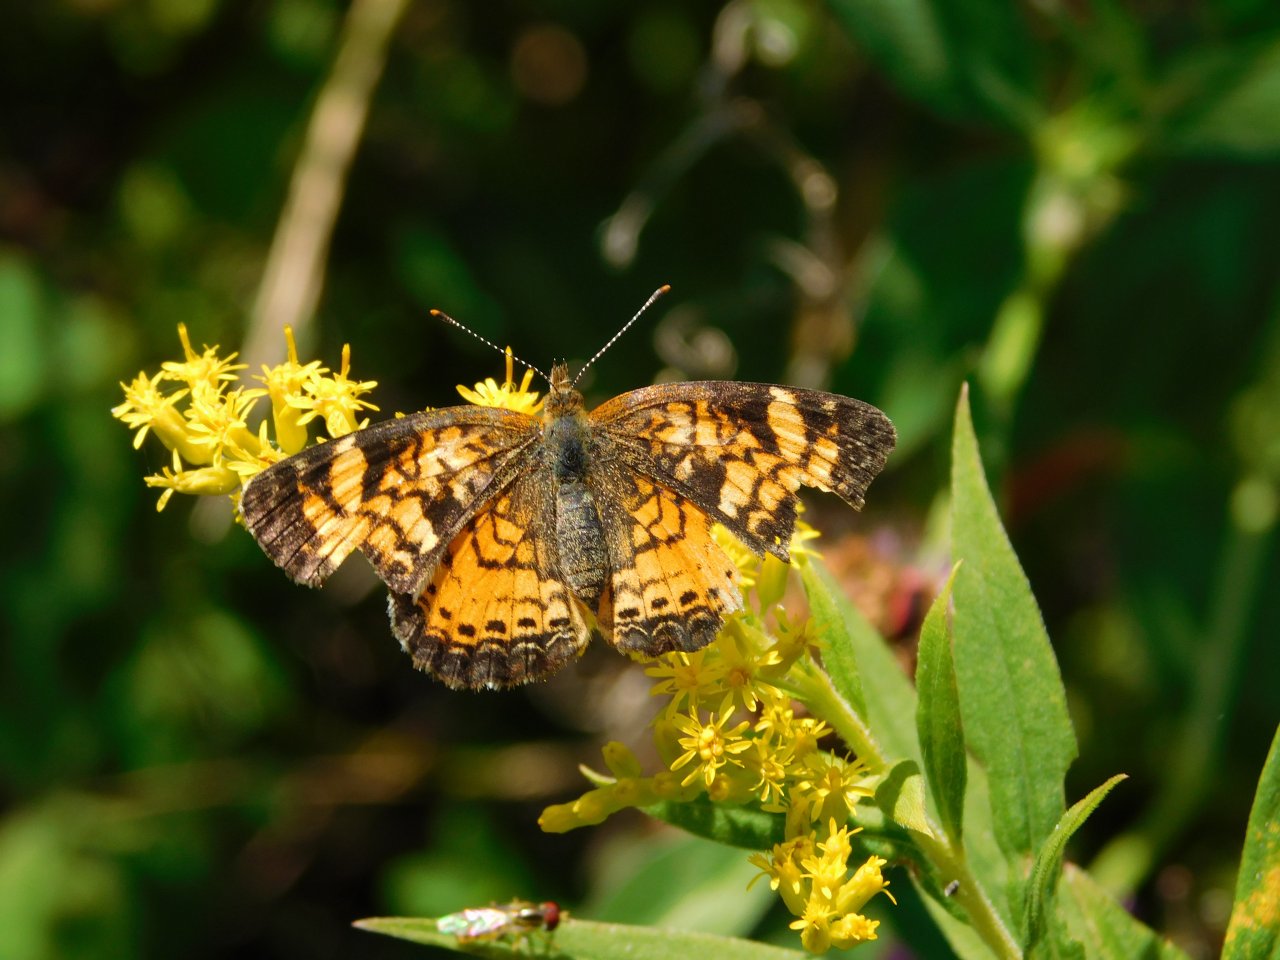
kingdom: Animalia
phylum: Arthropoda
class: Insecta
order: Lepidoptera
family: Nymphalidae
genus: Phyciodes
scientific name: Phyciodes tharos
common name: Northern Crescent
